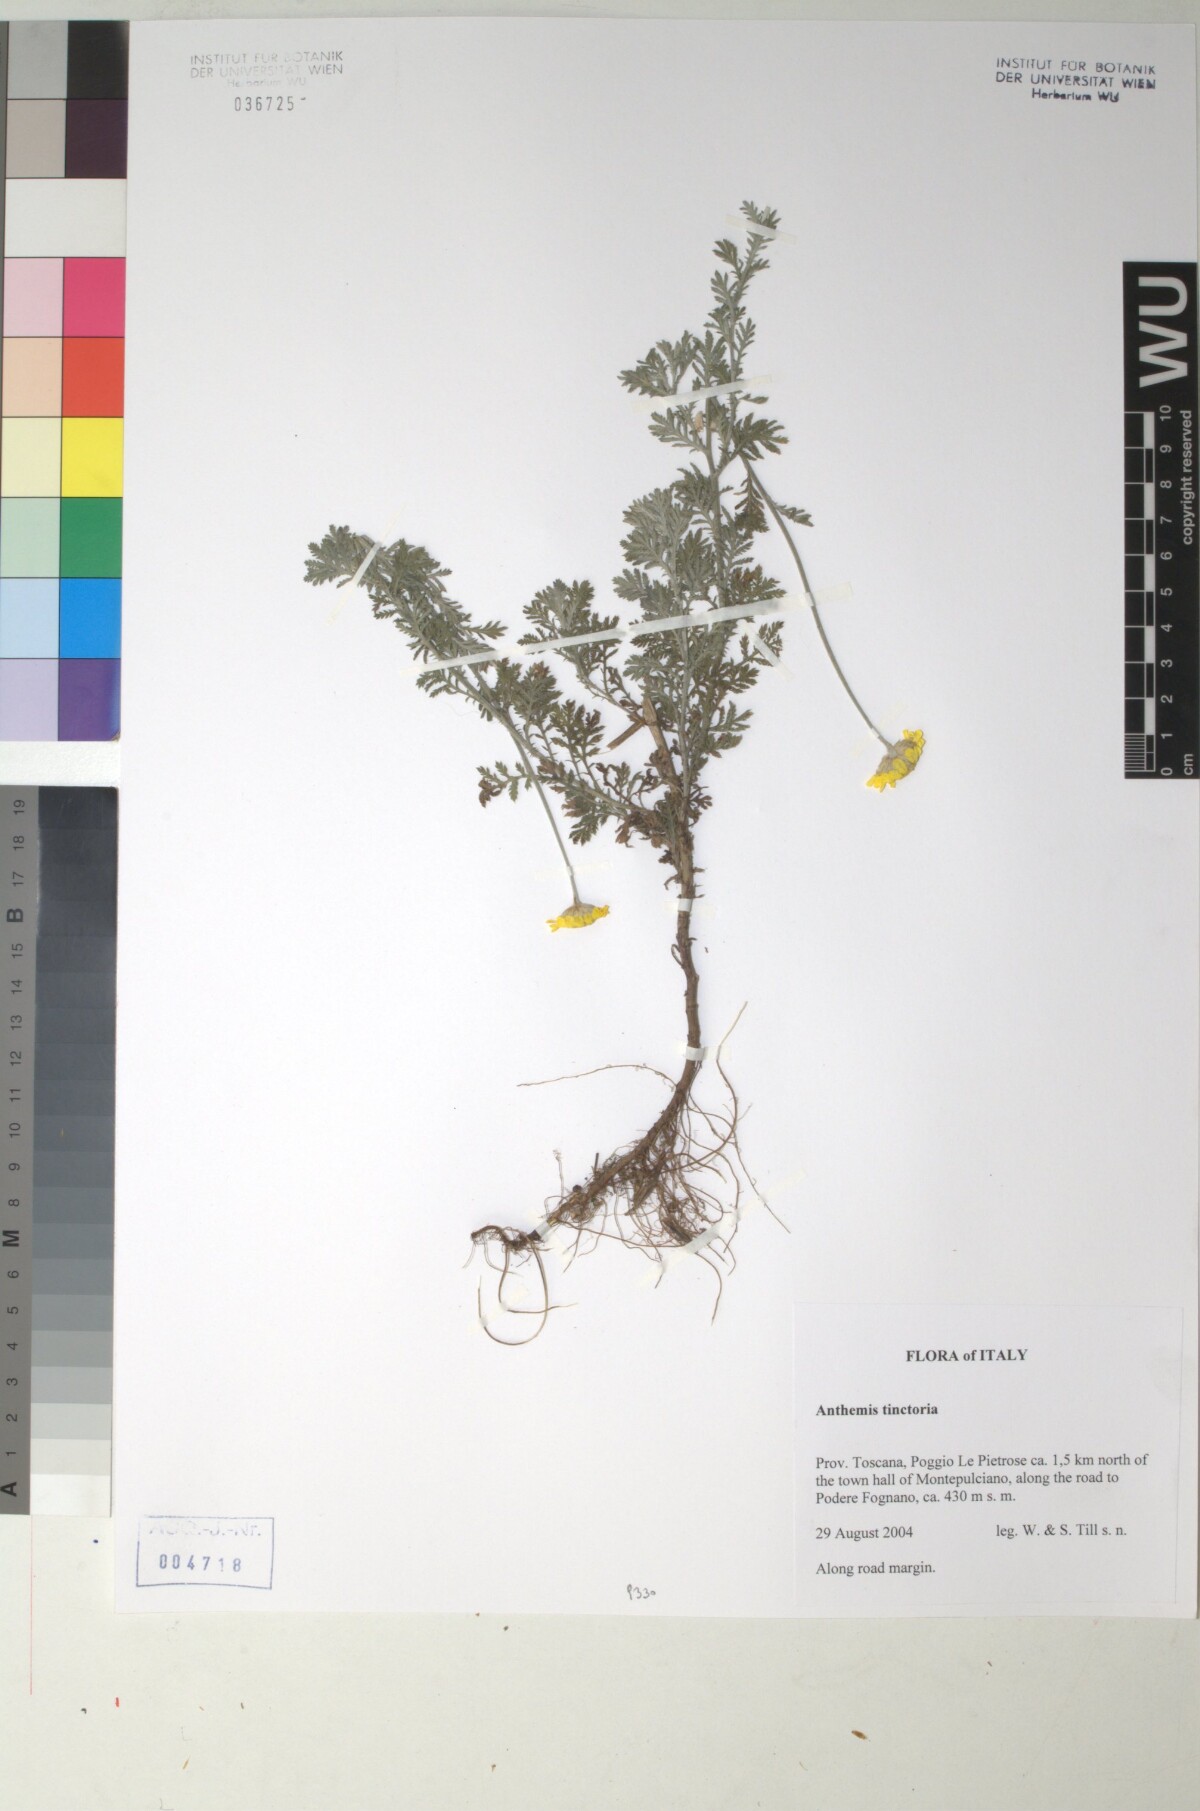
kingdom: Plantae
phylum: Tracheophyta
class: Magnoliopsida
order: Asterales
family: Asteraceae
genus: Cota
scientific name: Cota tinctoria
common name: Golden chamomile
